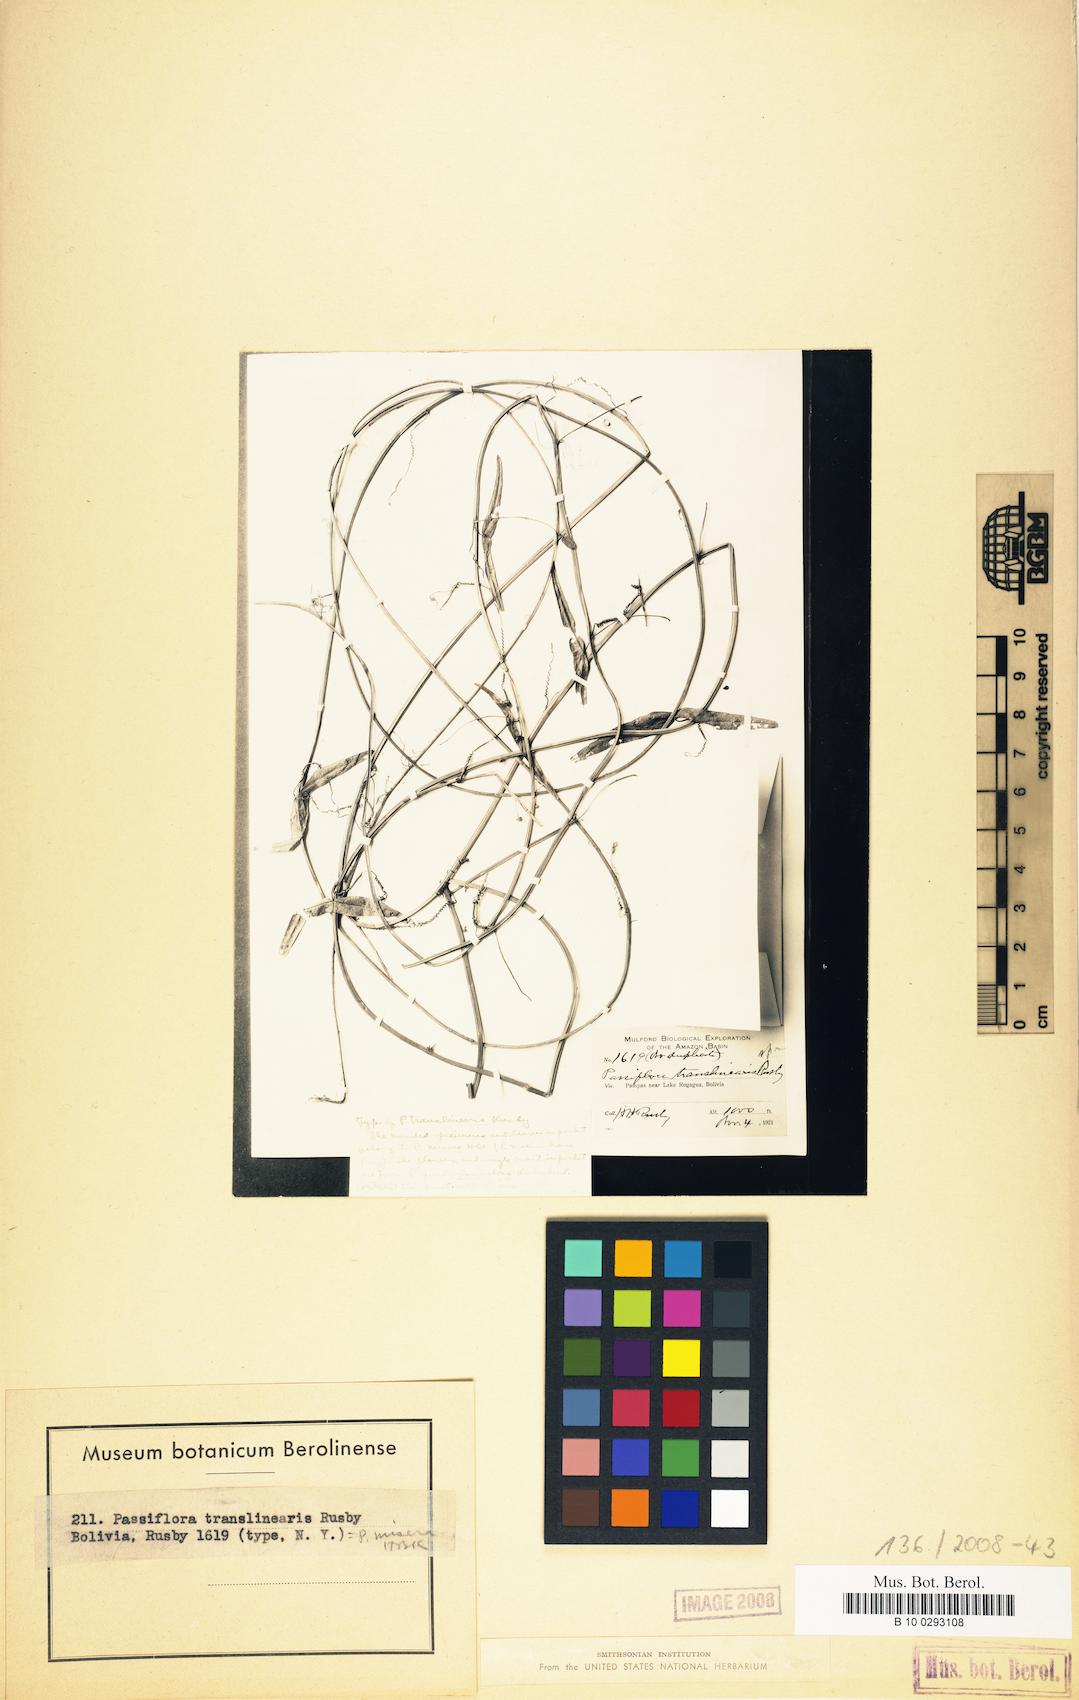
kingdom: Plantae
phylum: Tracheophyta
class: Magnoliopsida
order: Malpighiales
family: Passifloraceae
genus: Passiflora
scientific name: Passiflora misera
